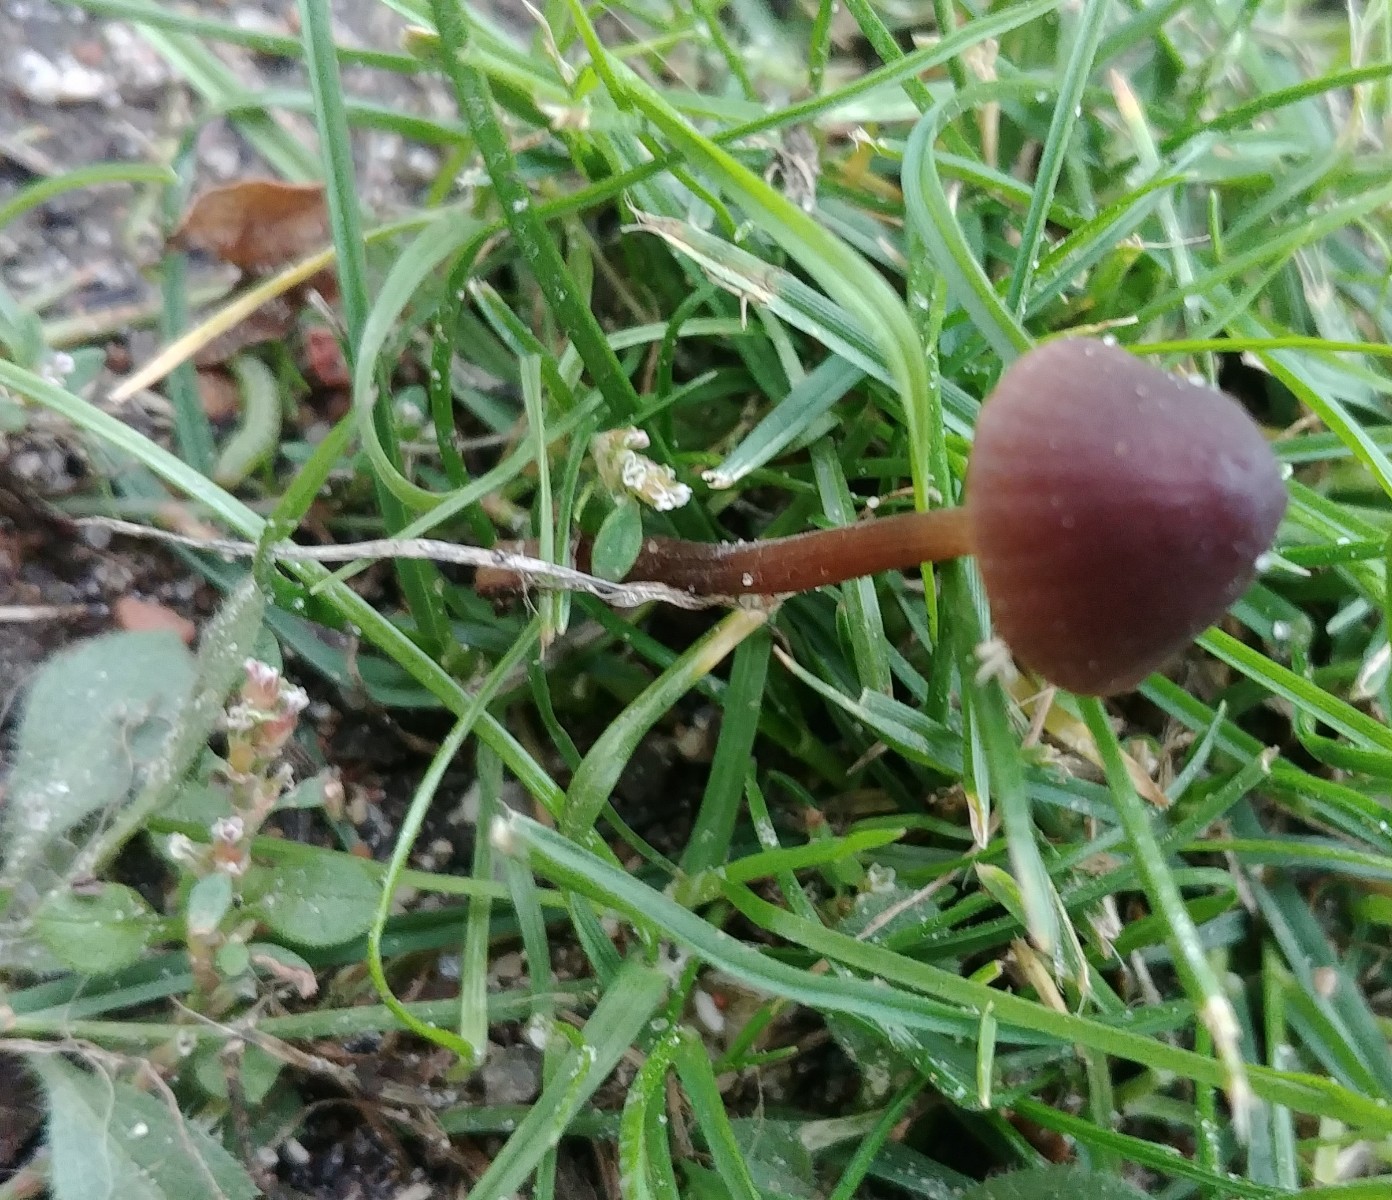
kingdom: Fungi
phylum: Basidiomycota
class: Agaricomycetes
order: Agaricales
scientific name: Agaricales
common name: champignonordenen
